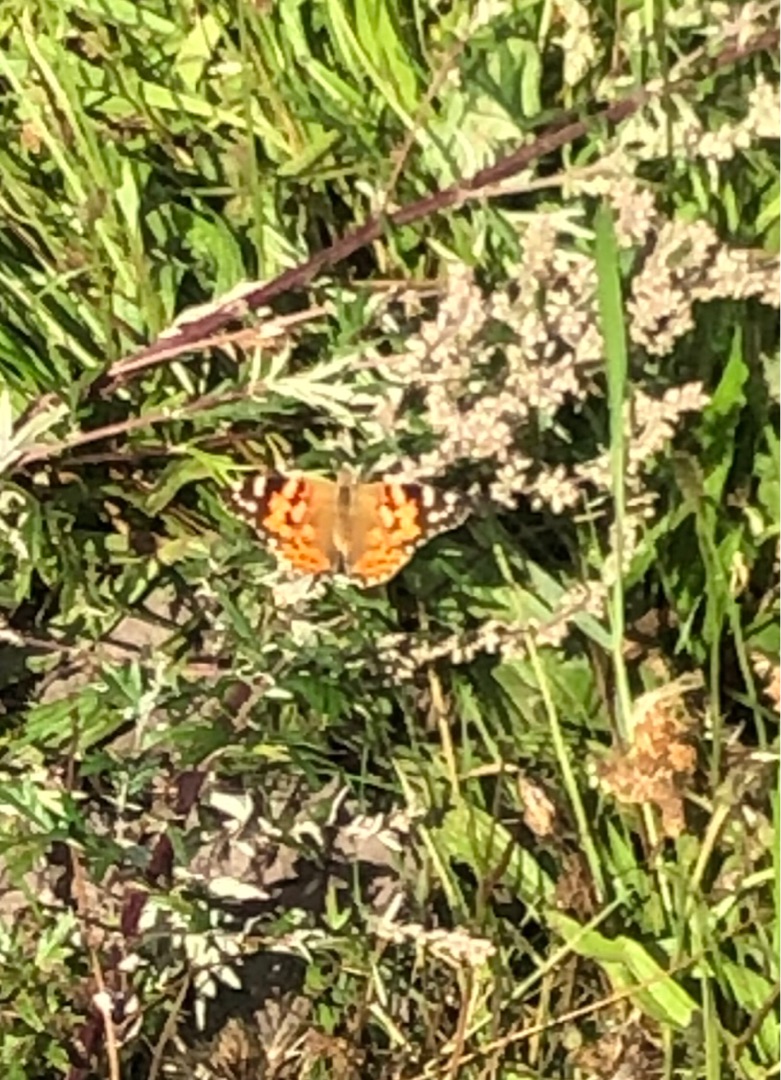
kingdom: Animalia
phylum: Arthropoda
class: Insecta
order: Lepidoptera
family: Nymphalidae
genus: Vanessa
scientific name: Vanessa cardui
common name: Tidselsommerfugl
